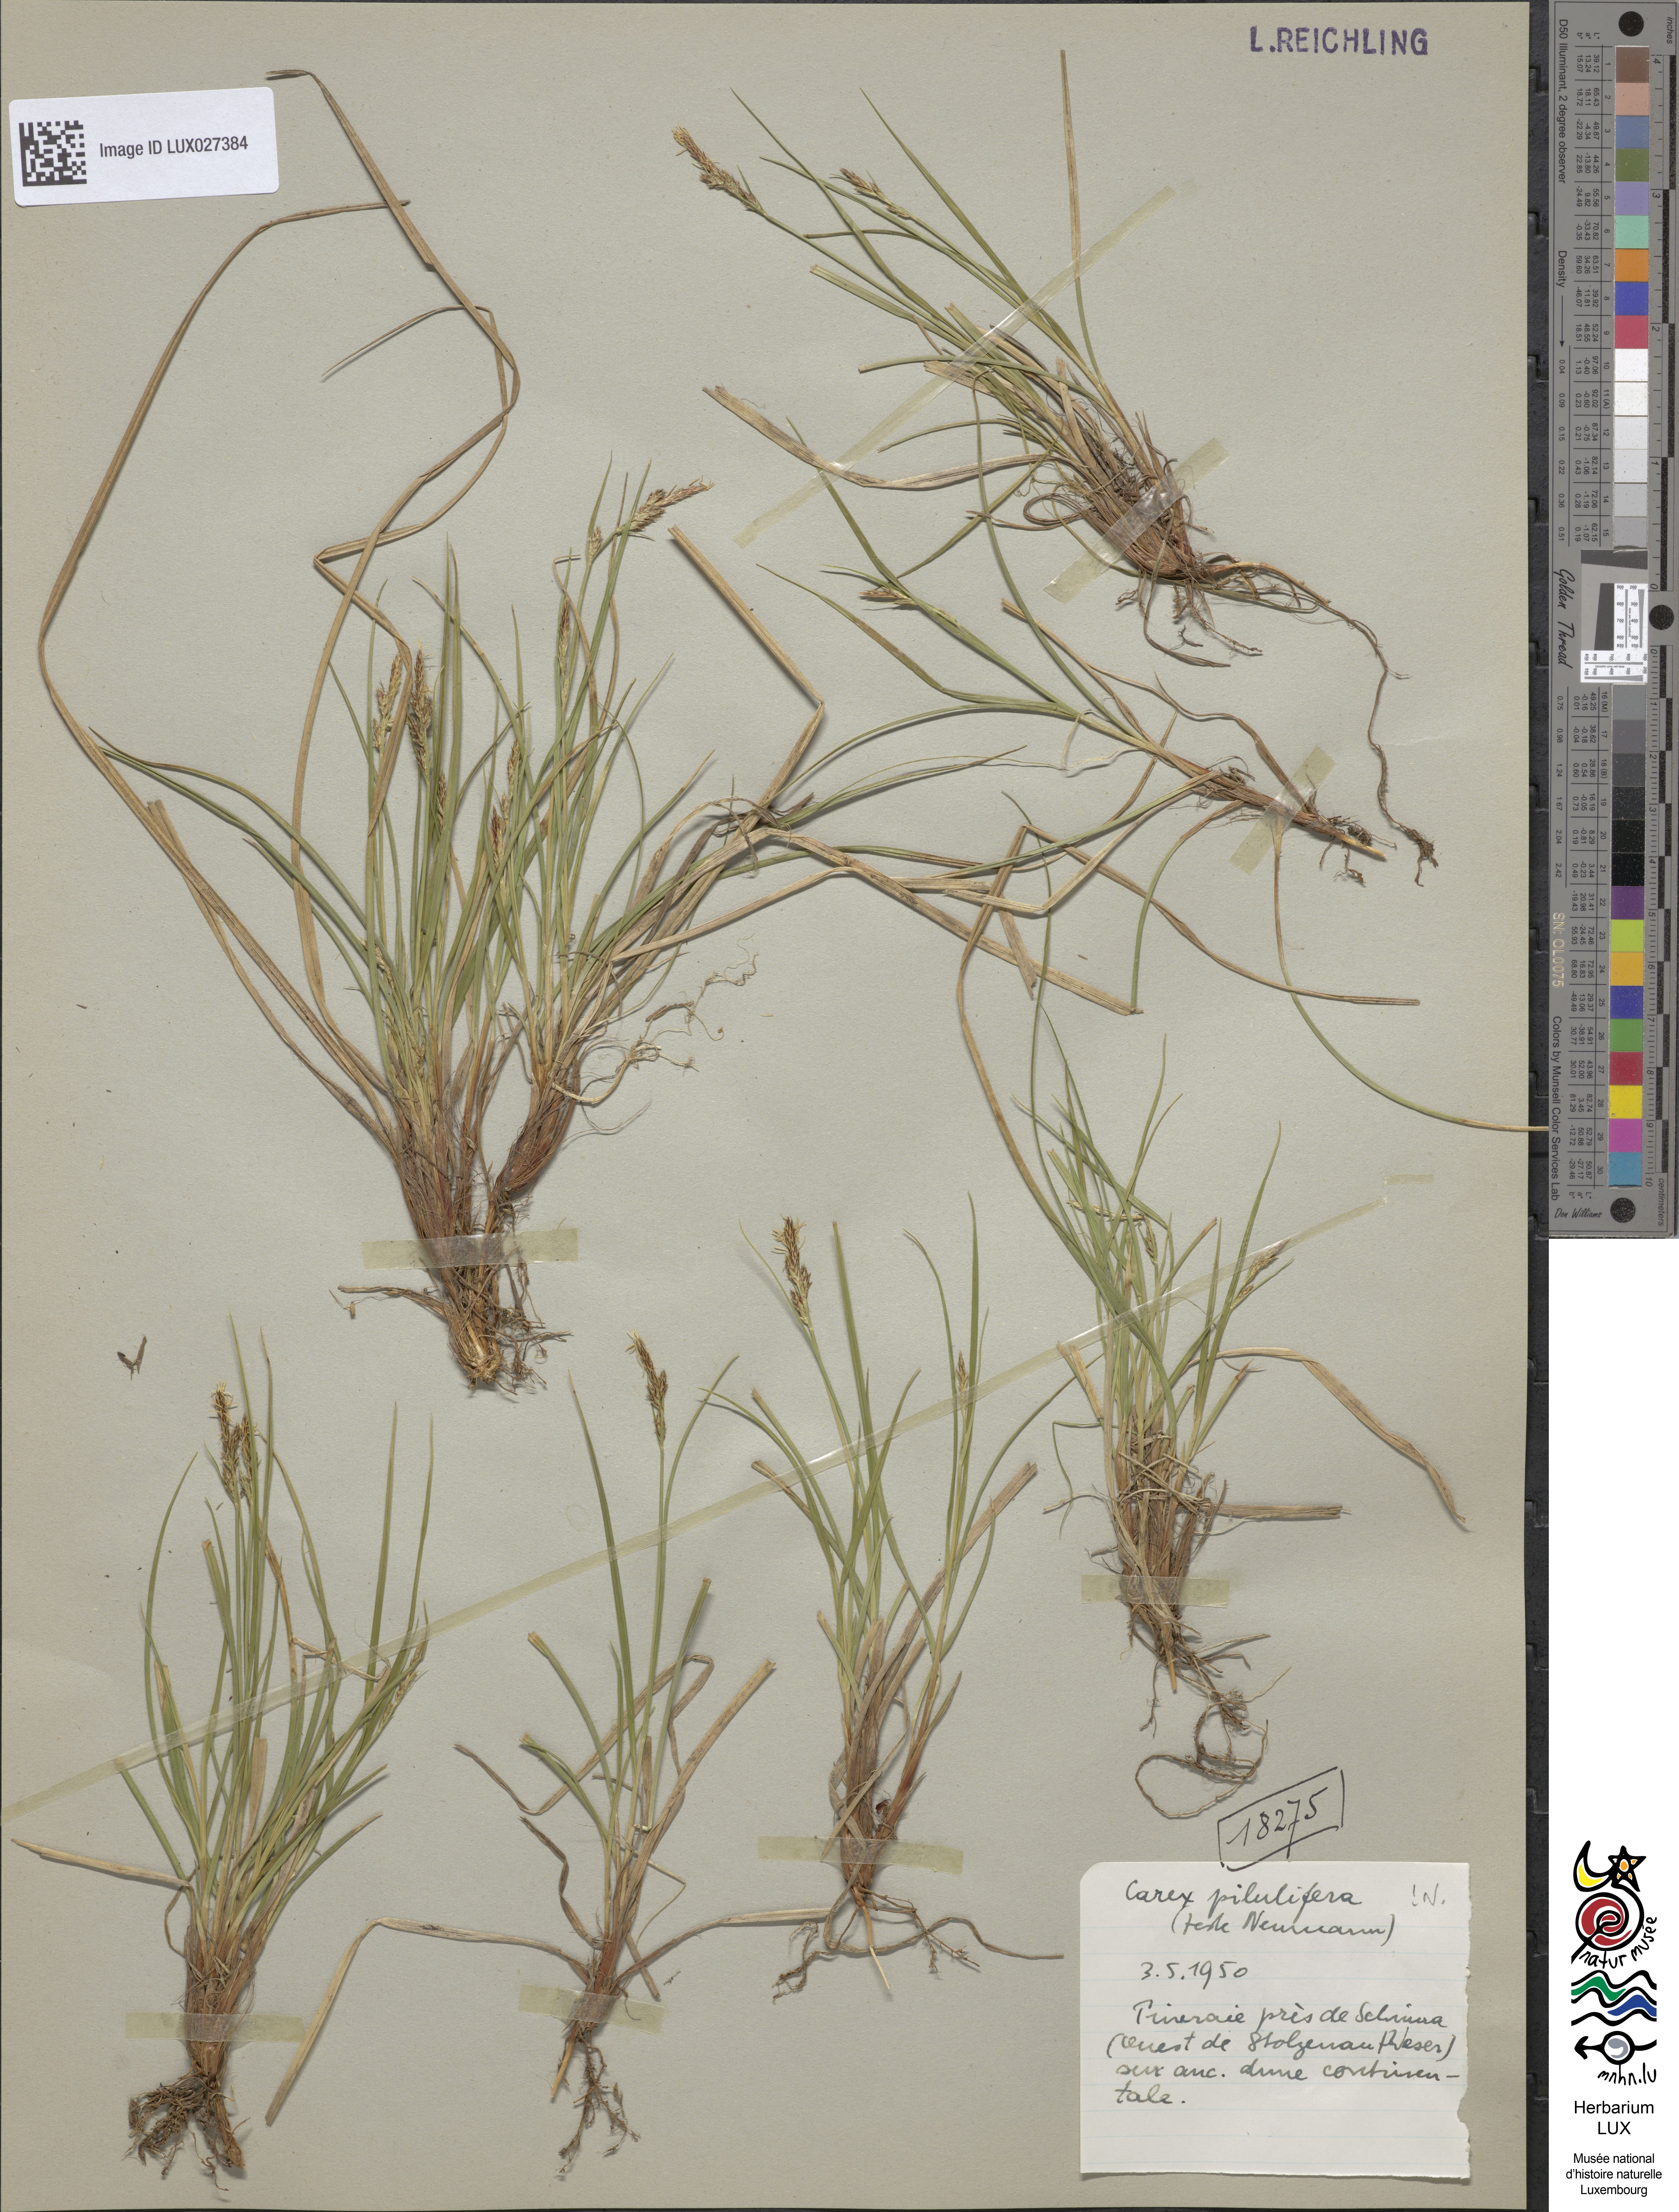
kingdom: Plantae
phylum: Tracheophyta
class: Liliopsida
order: Poales
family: Cyperaceae
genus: Carex
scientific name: Carex pilulifera
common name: Pill sedge
